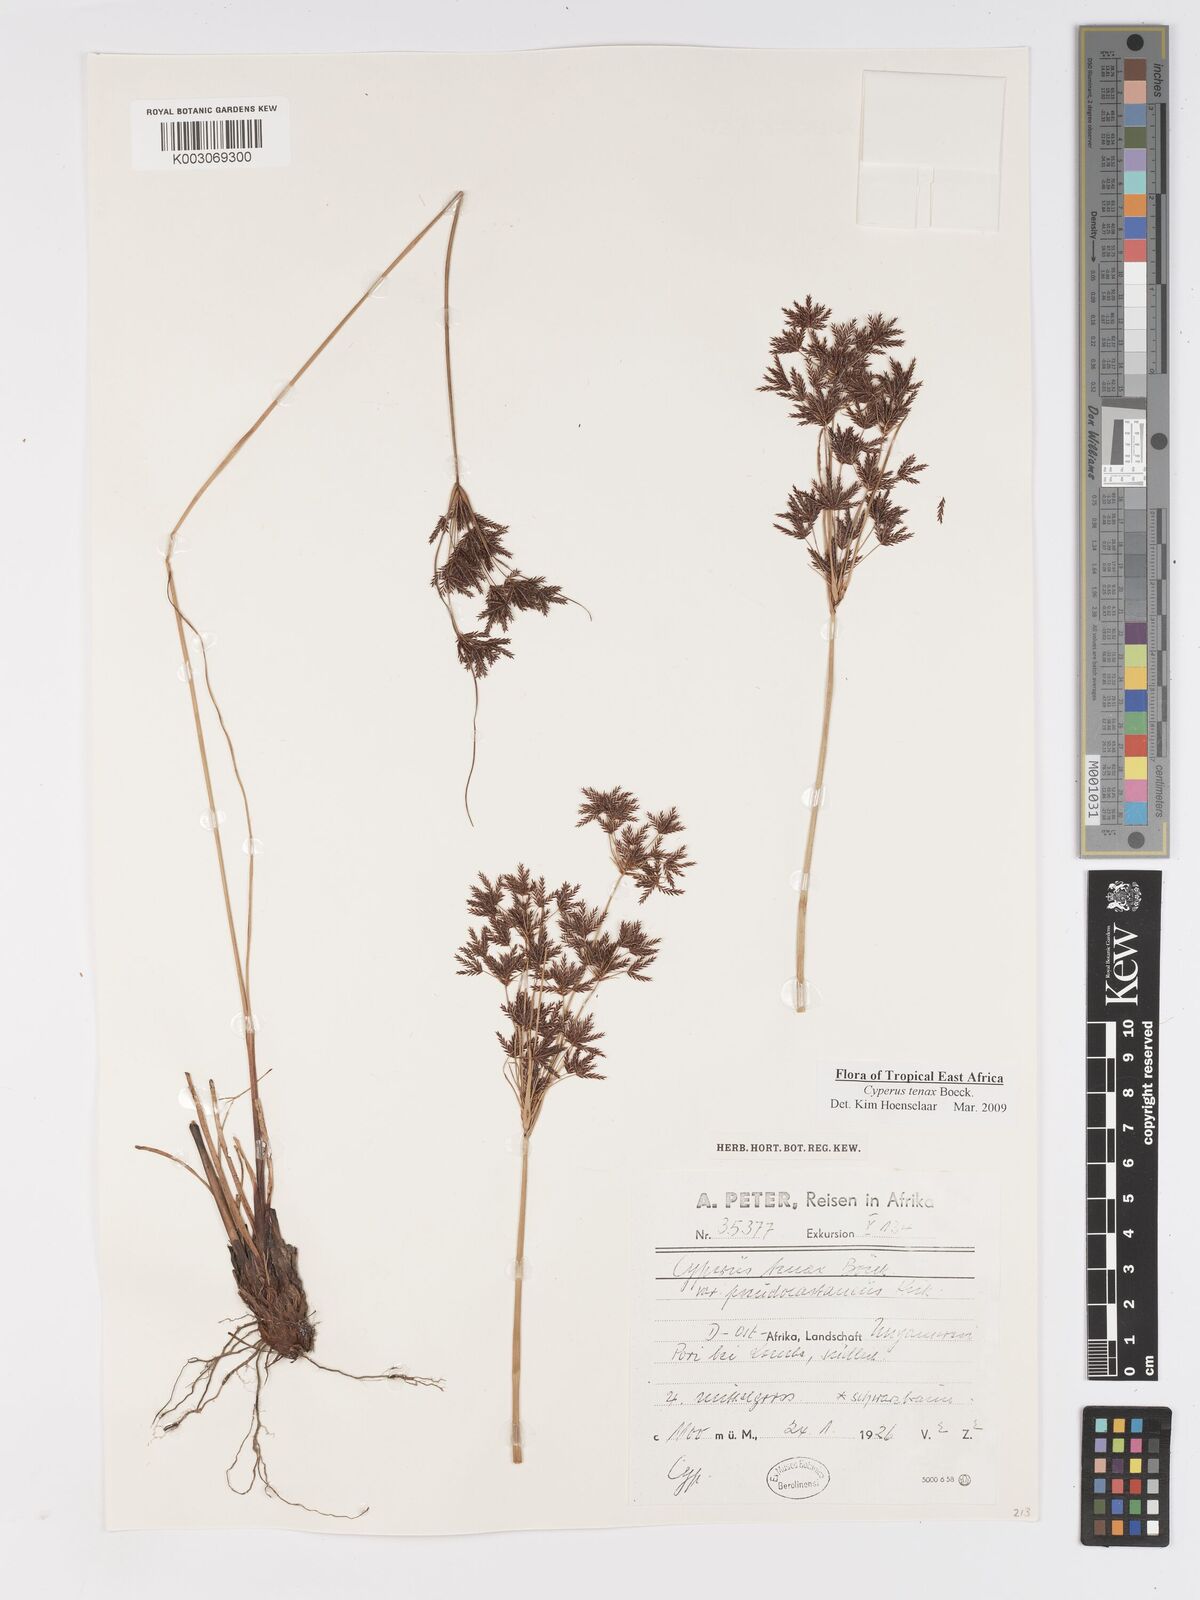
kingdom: Plantae
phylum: Tracheophyta
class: Liliopsida
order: Poales
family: Cyperaceae
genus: Cyperus
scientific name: Cyperus tenax
